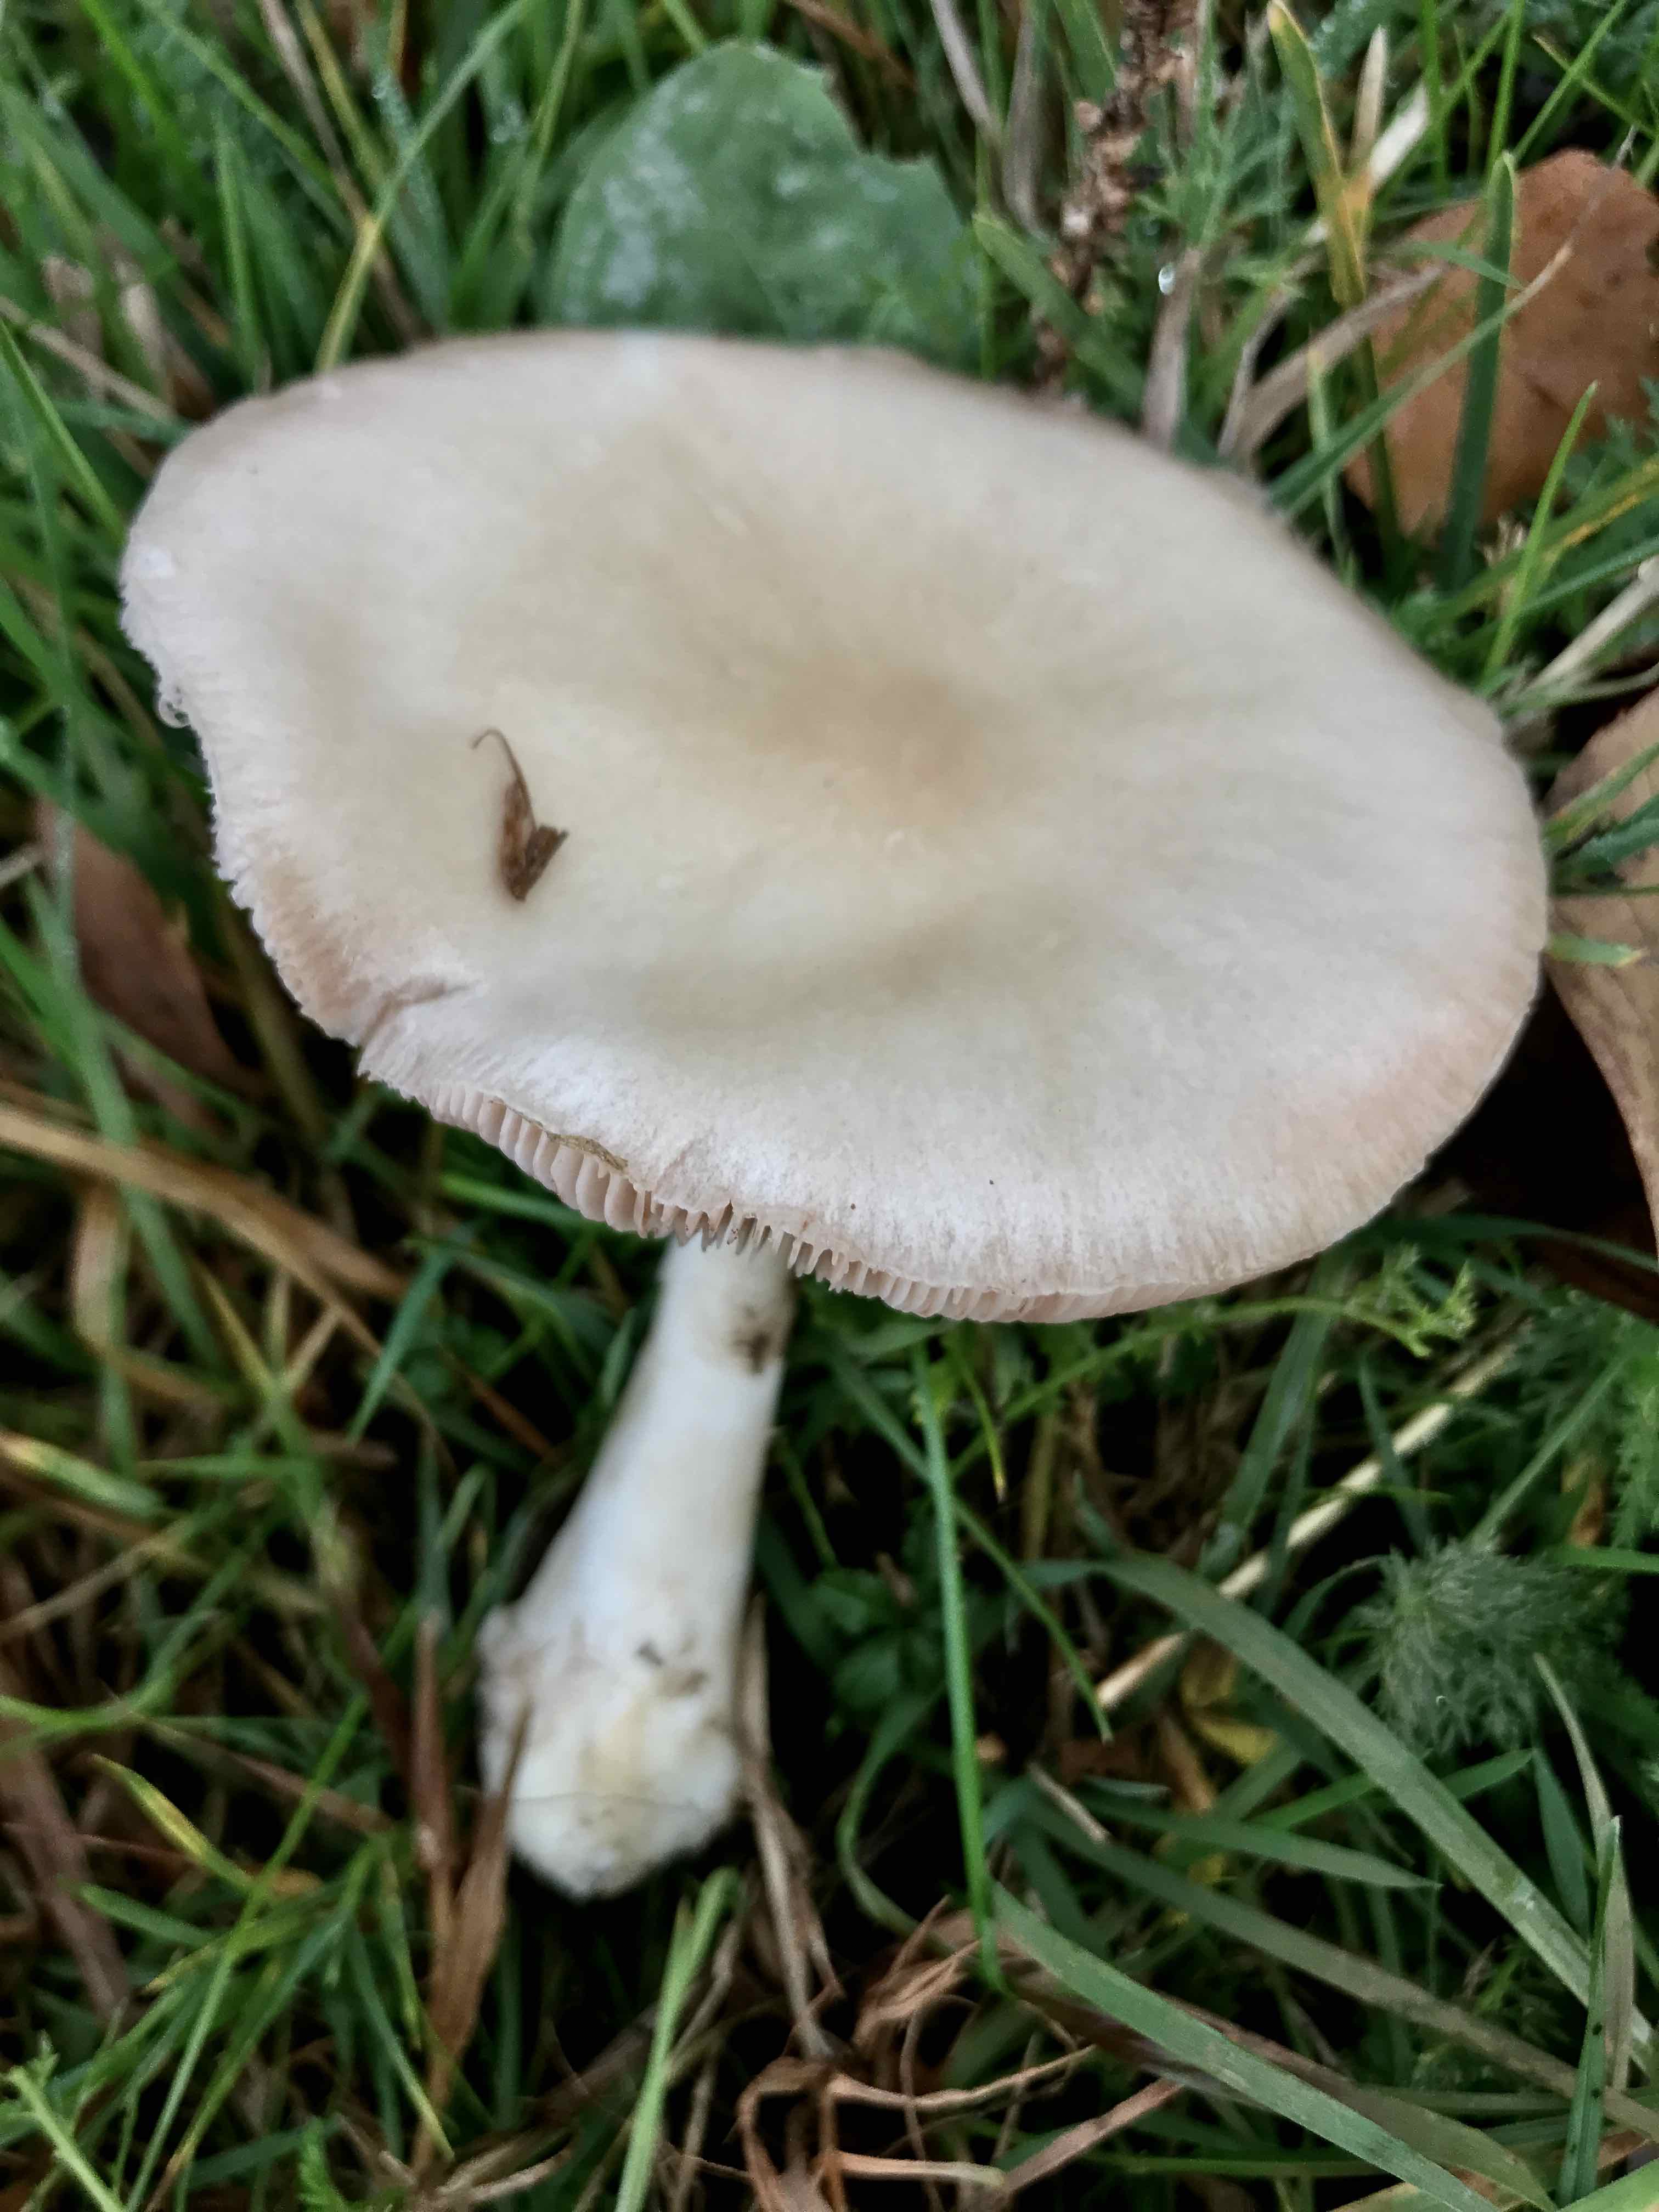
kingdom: Fungi
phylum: Basidiomycota
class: Agaricomycetes
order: Agaricales
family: Pluteaceae
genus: Volvopluteus
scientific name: Volvopluteus gloiocephalus
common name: høj posesvamp
